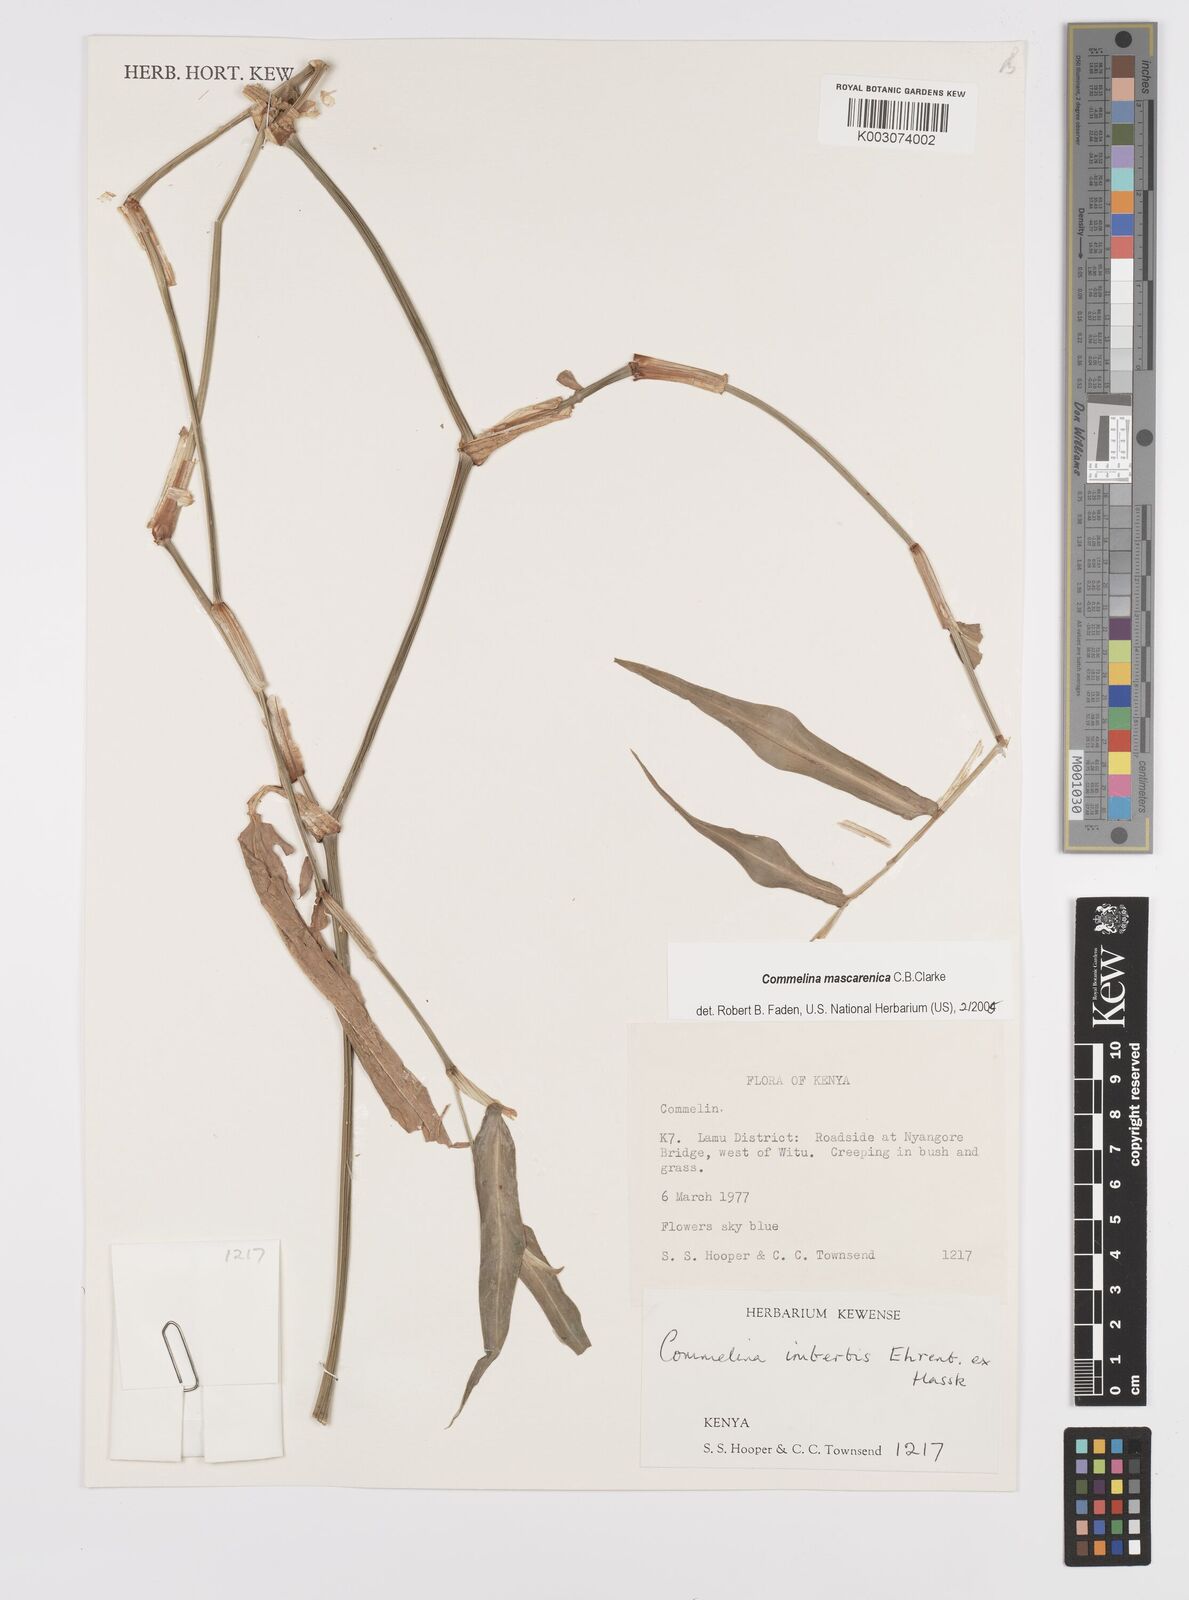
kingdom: Plantae
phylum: Tracheophyta
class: Liliopsida
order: Commelinales
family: Commelinaceae
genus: Commelina
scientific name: Commelina mascarenica
